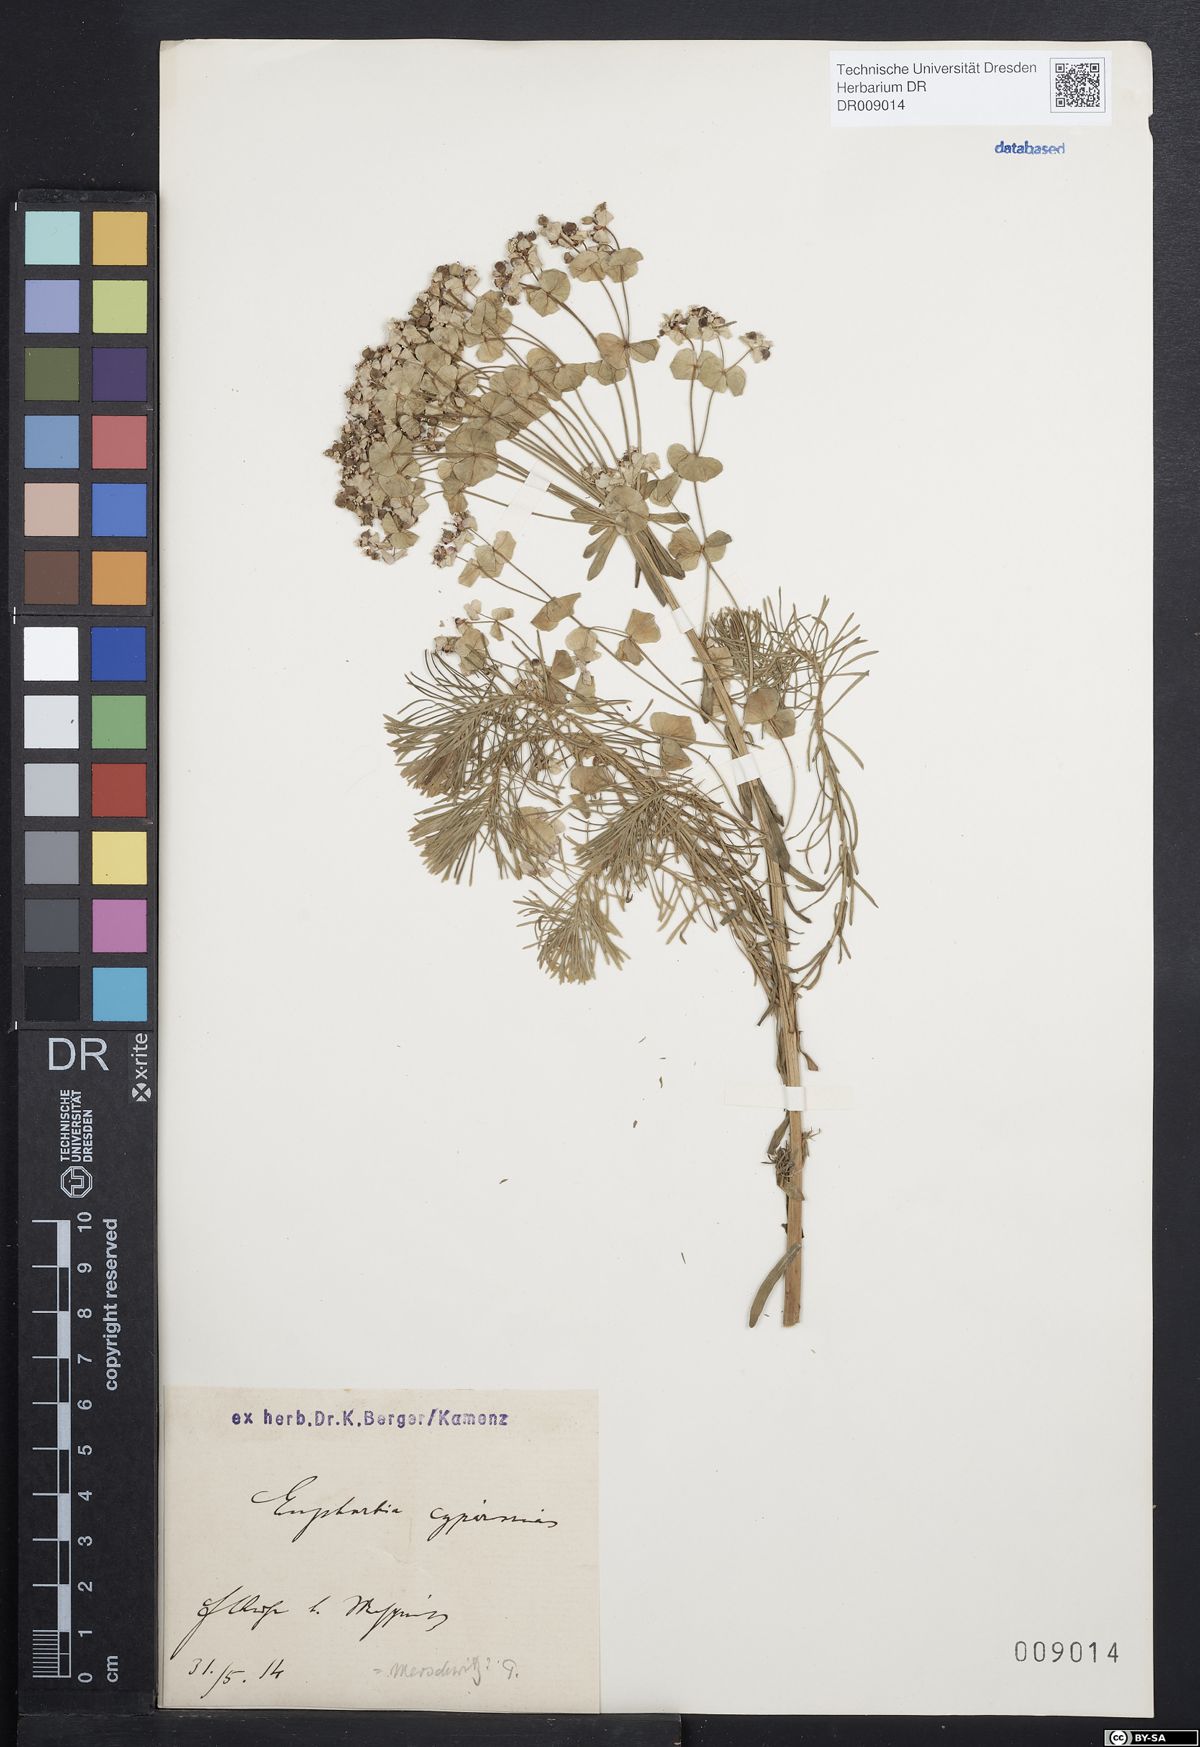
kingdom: Plantae
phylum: Tracheophyta
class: Magnoliopsida
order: Malpighiales
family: Euphorbiaceae
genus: Euphorbia
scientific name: Euphorbia cyparissias
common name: Cypress spurge
